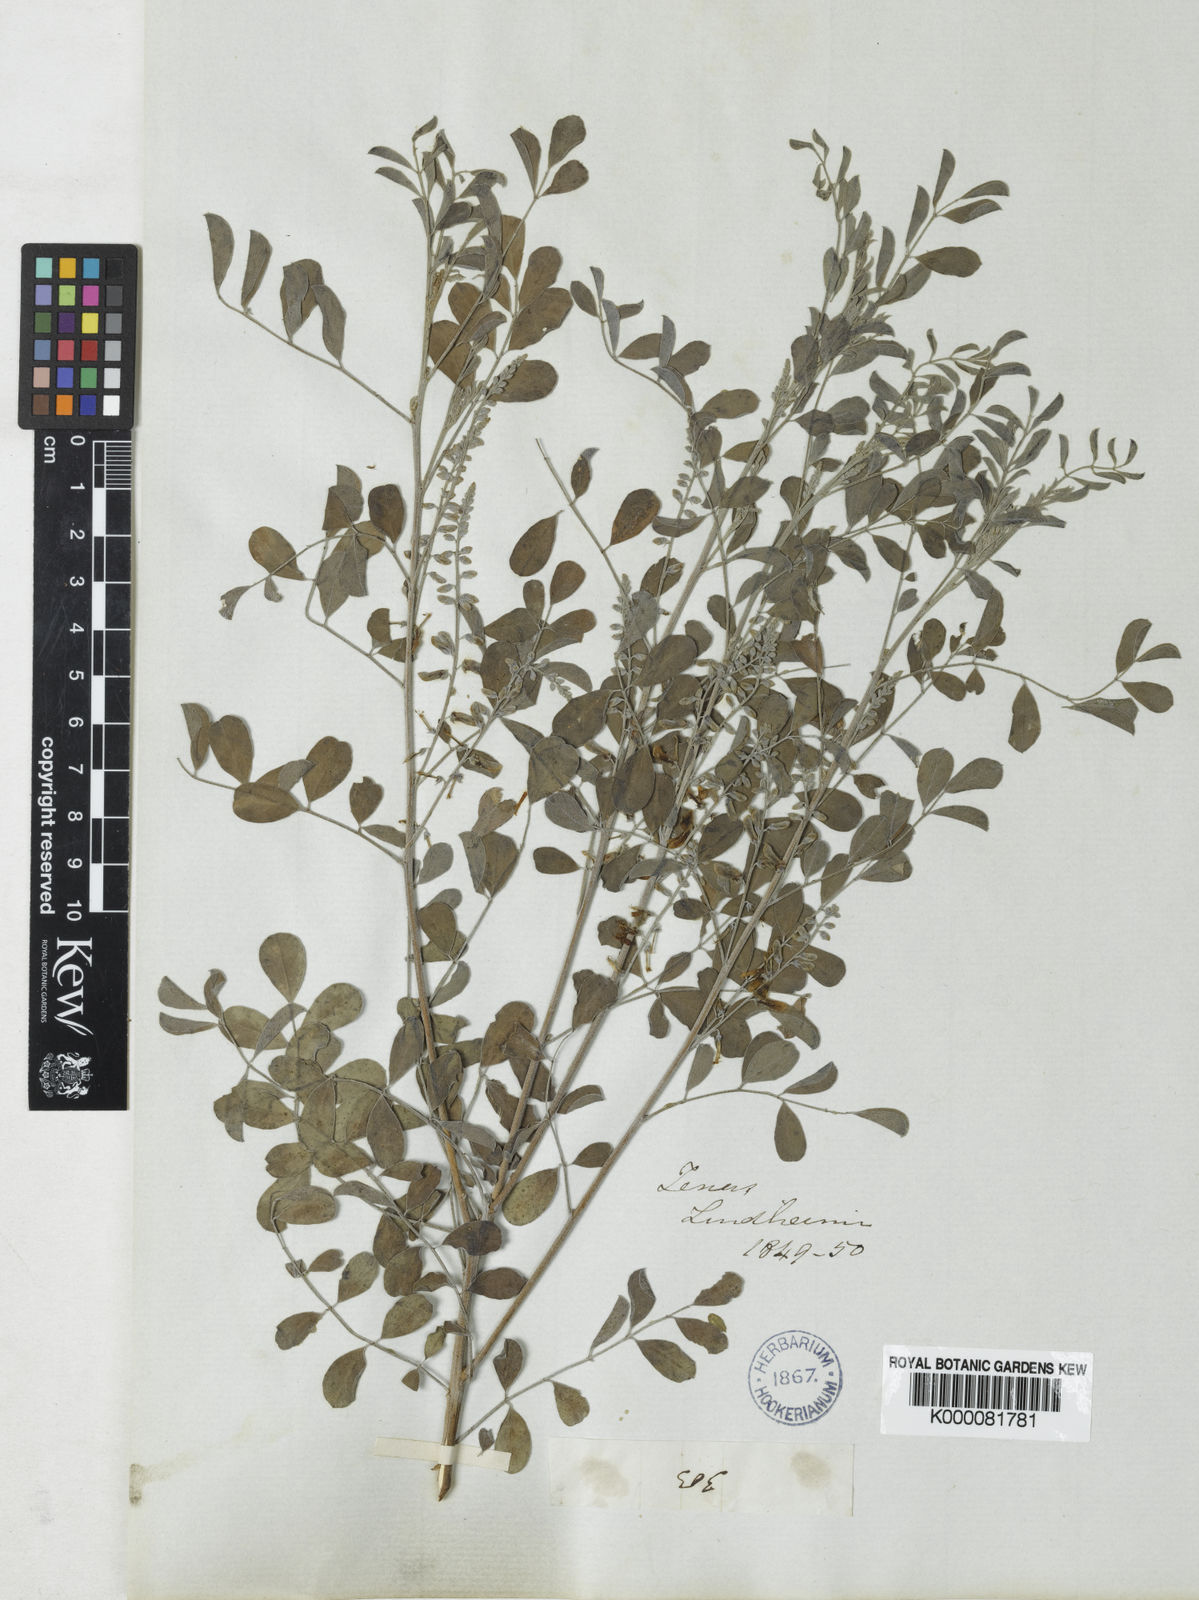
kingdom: Plantae
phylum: Tracheophyta
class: Magnoliopsida
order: Fabales
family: Fabaceae
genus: Indigofera
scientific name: Indigofera lindheimeriana
